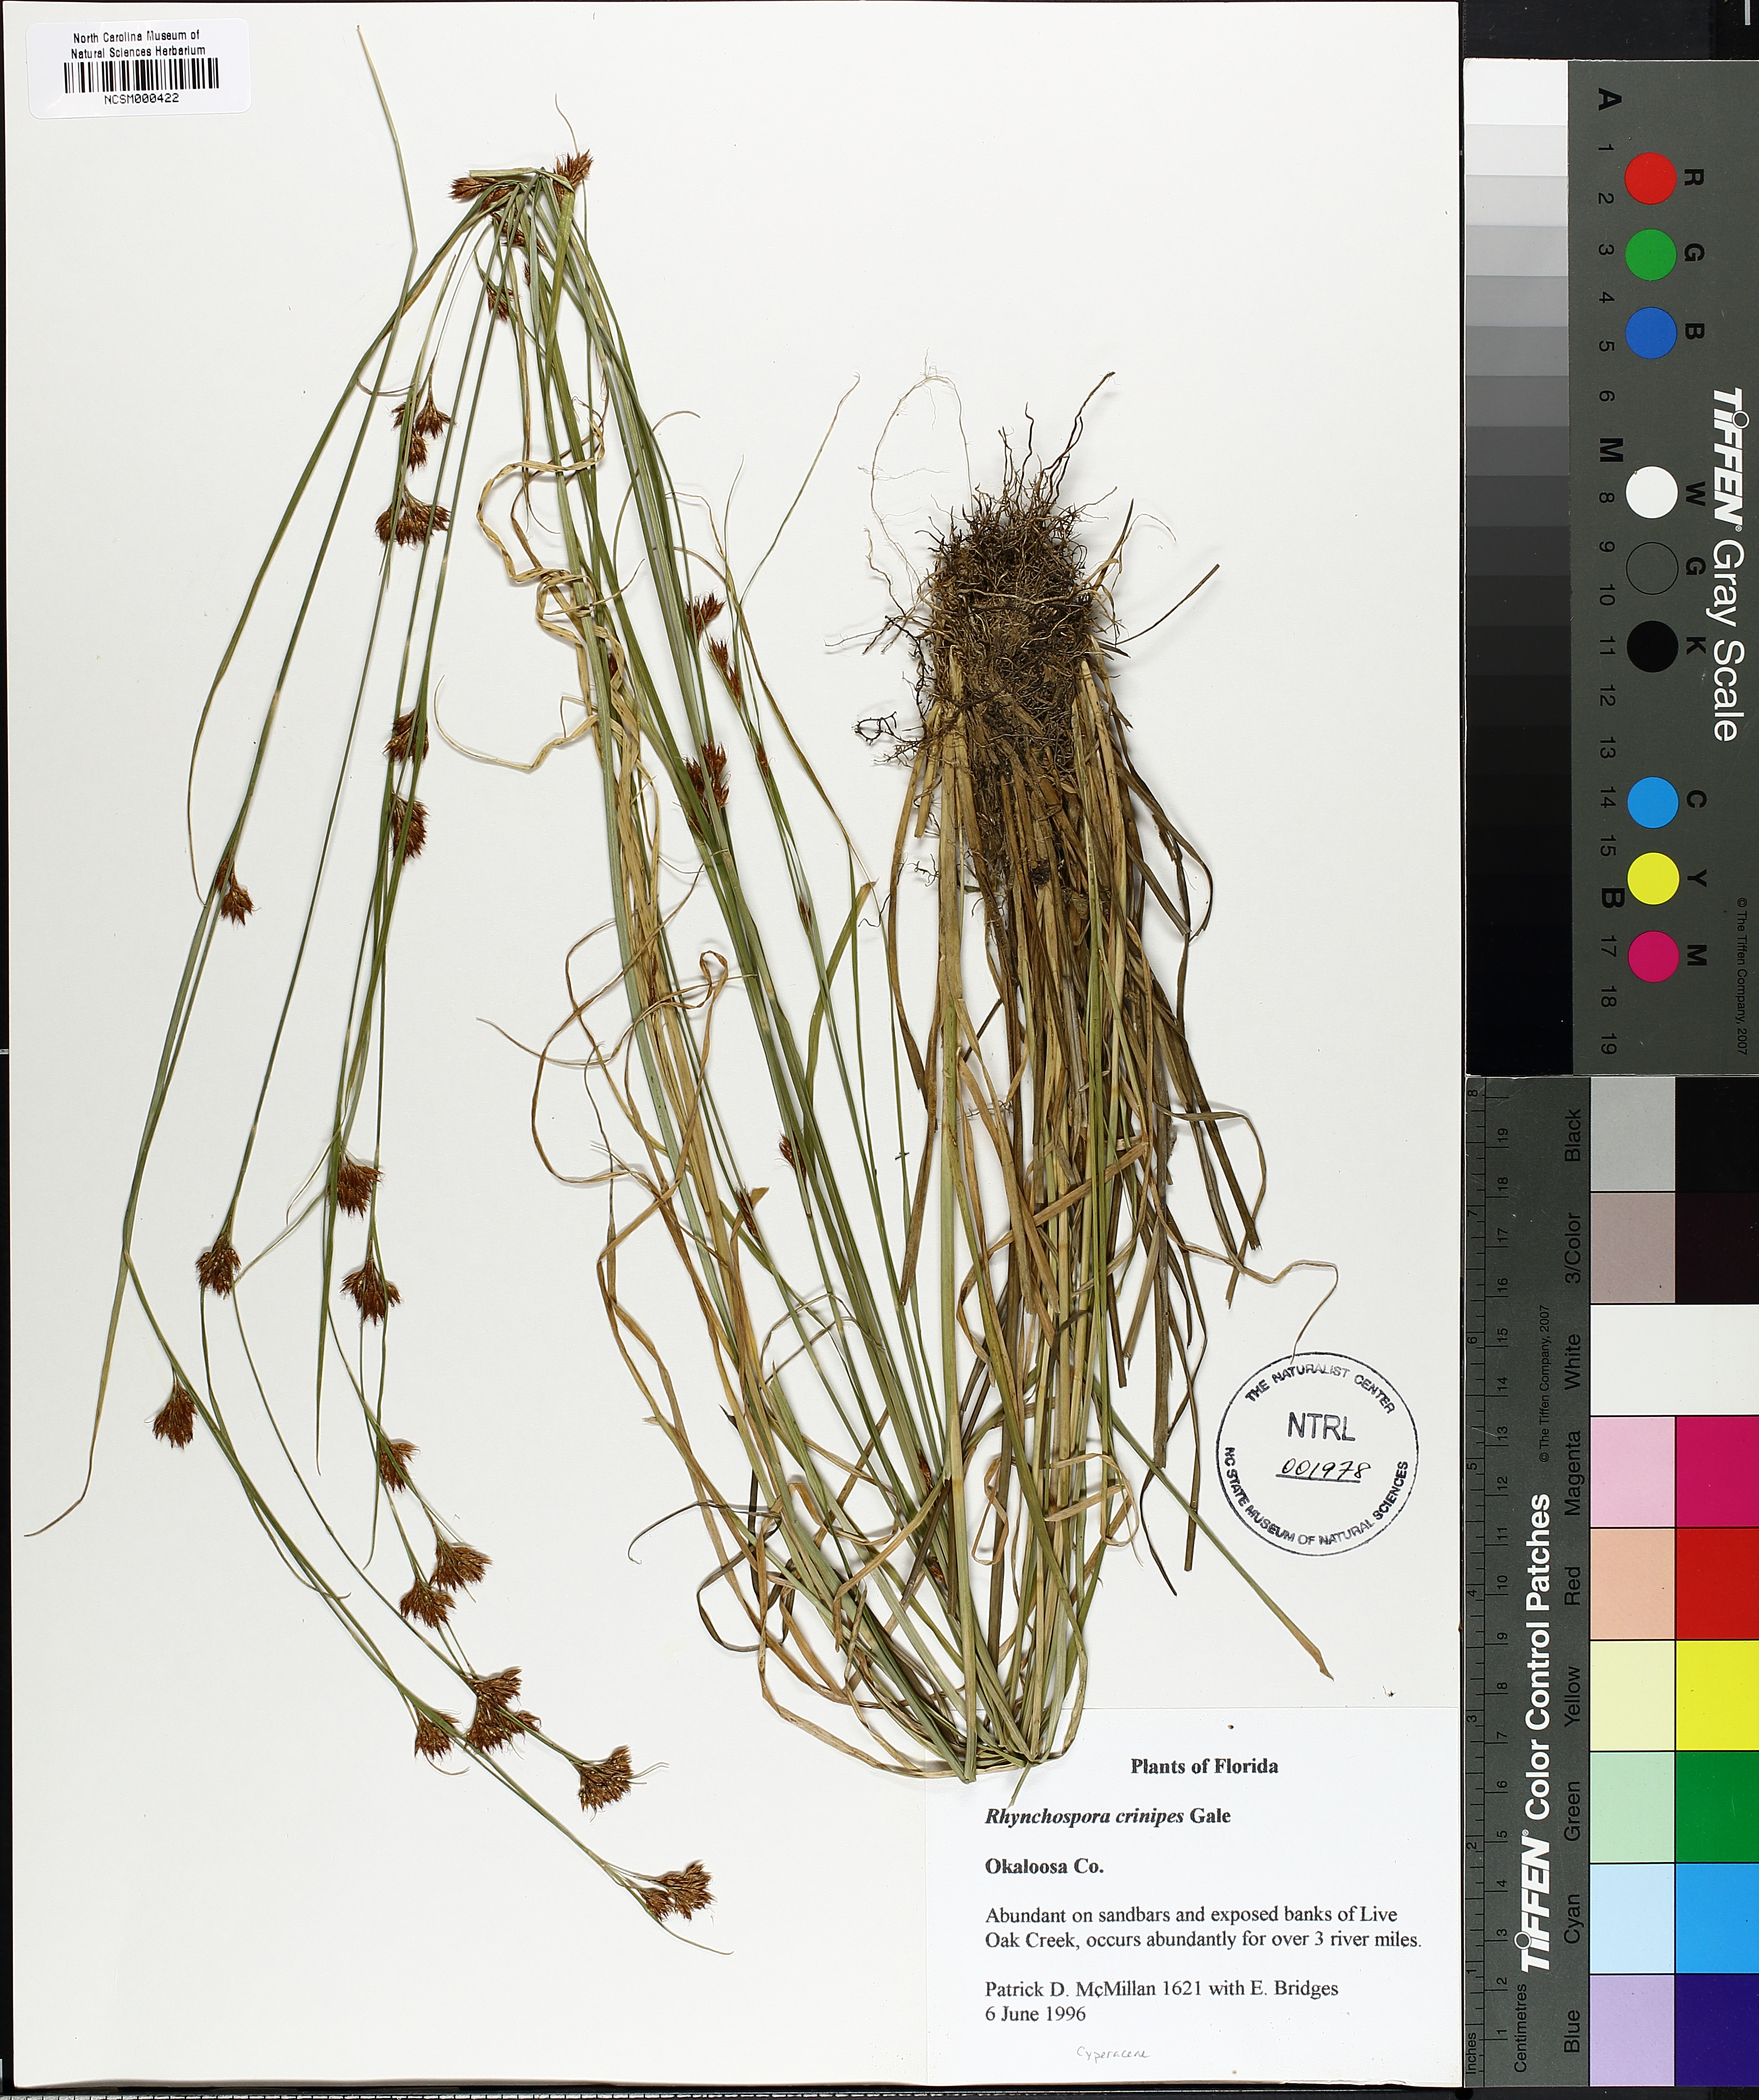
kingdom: Plantae
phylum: Tracheophyta
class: Liliopsida
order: Poales
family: Cyperaceae
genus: Rhynchospora
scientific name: Rhynchospora crinipes
